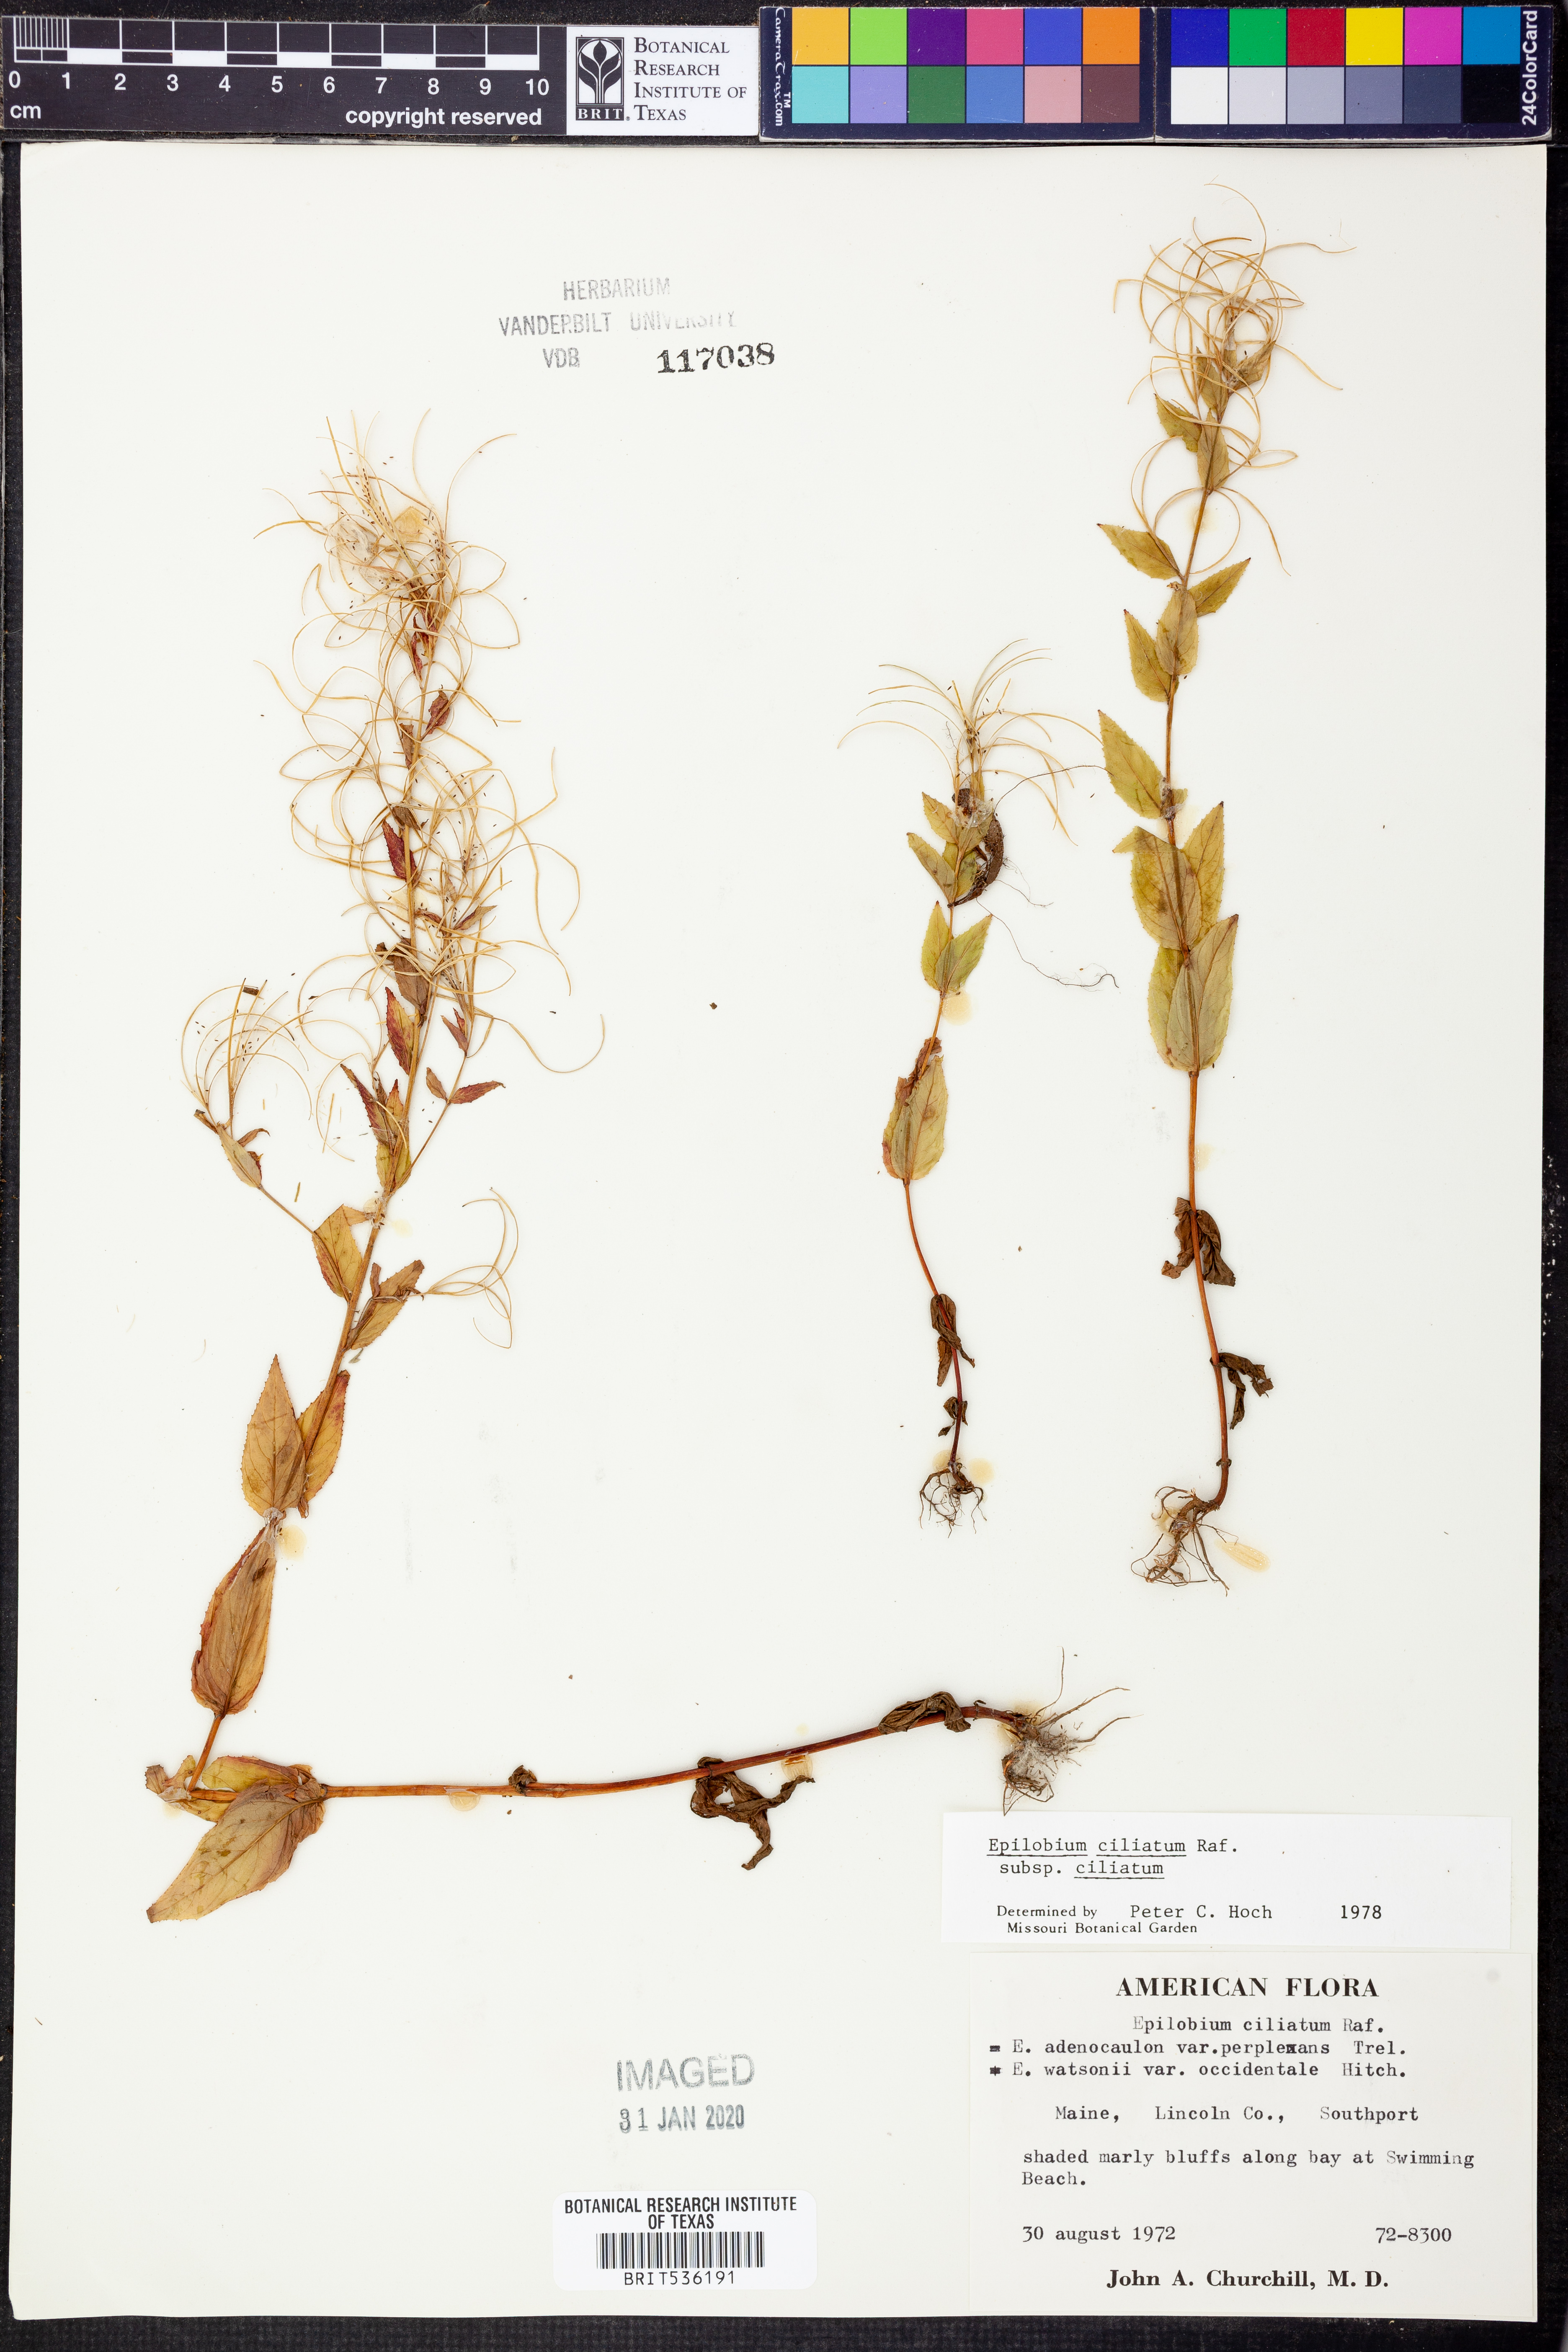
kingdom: Plantae
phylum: Tracheophyta
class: Magnoliopsida
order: Myrtales
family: Onagraceae
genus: Epilobium
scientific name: Epilobium ciliatum
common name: American willowherb
